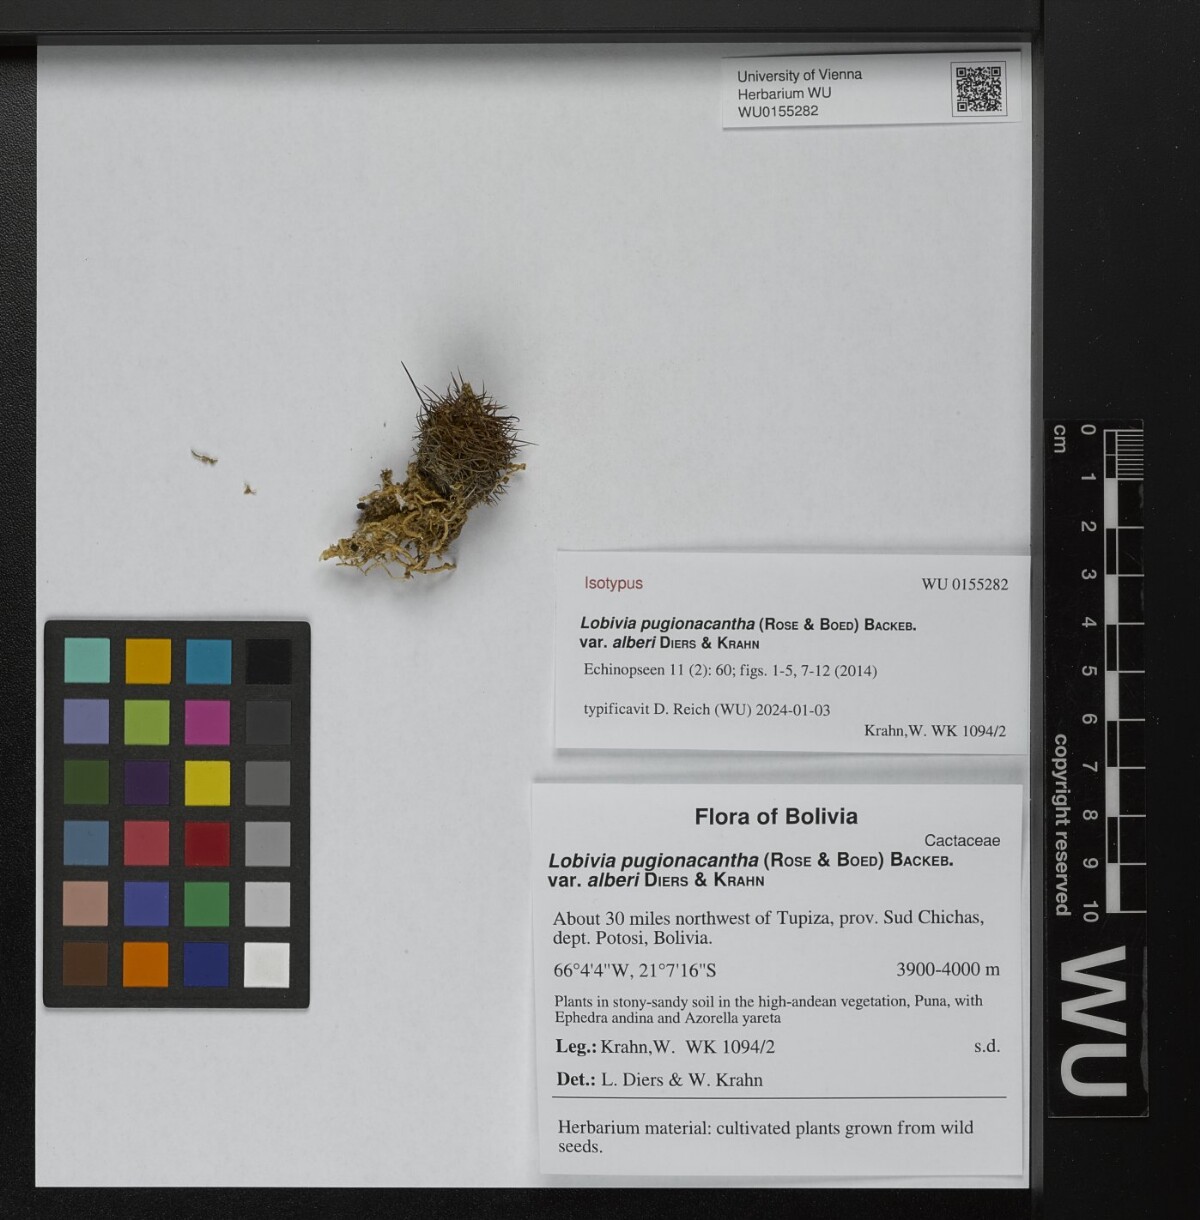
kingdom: Plantae
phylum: Tracheophyta
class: Magnoliopsida
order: Caryophyllales
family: Cactaceae
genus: Lobivia
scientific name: Lobivia pugionacantha
